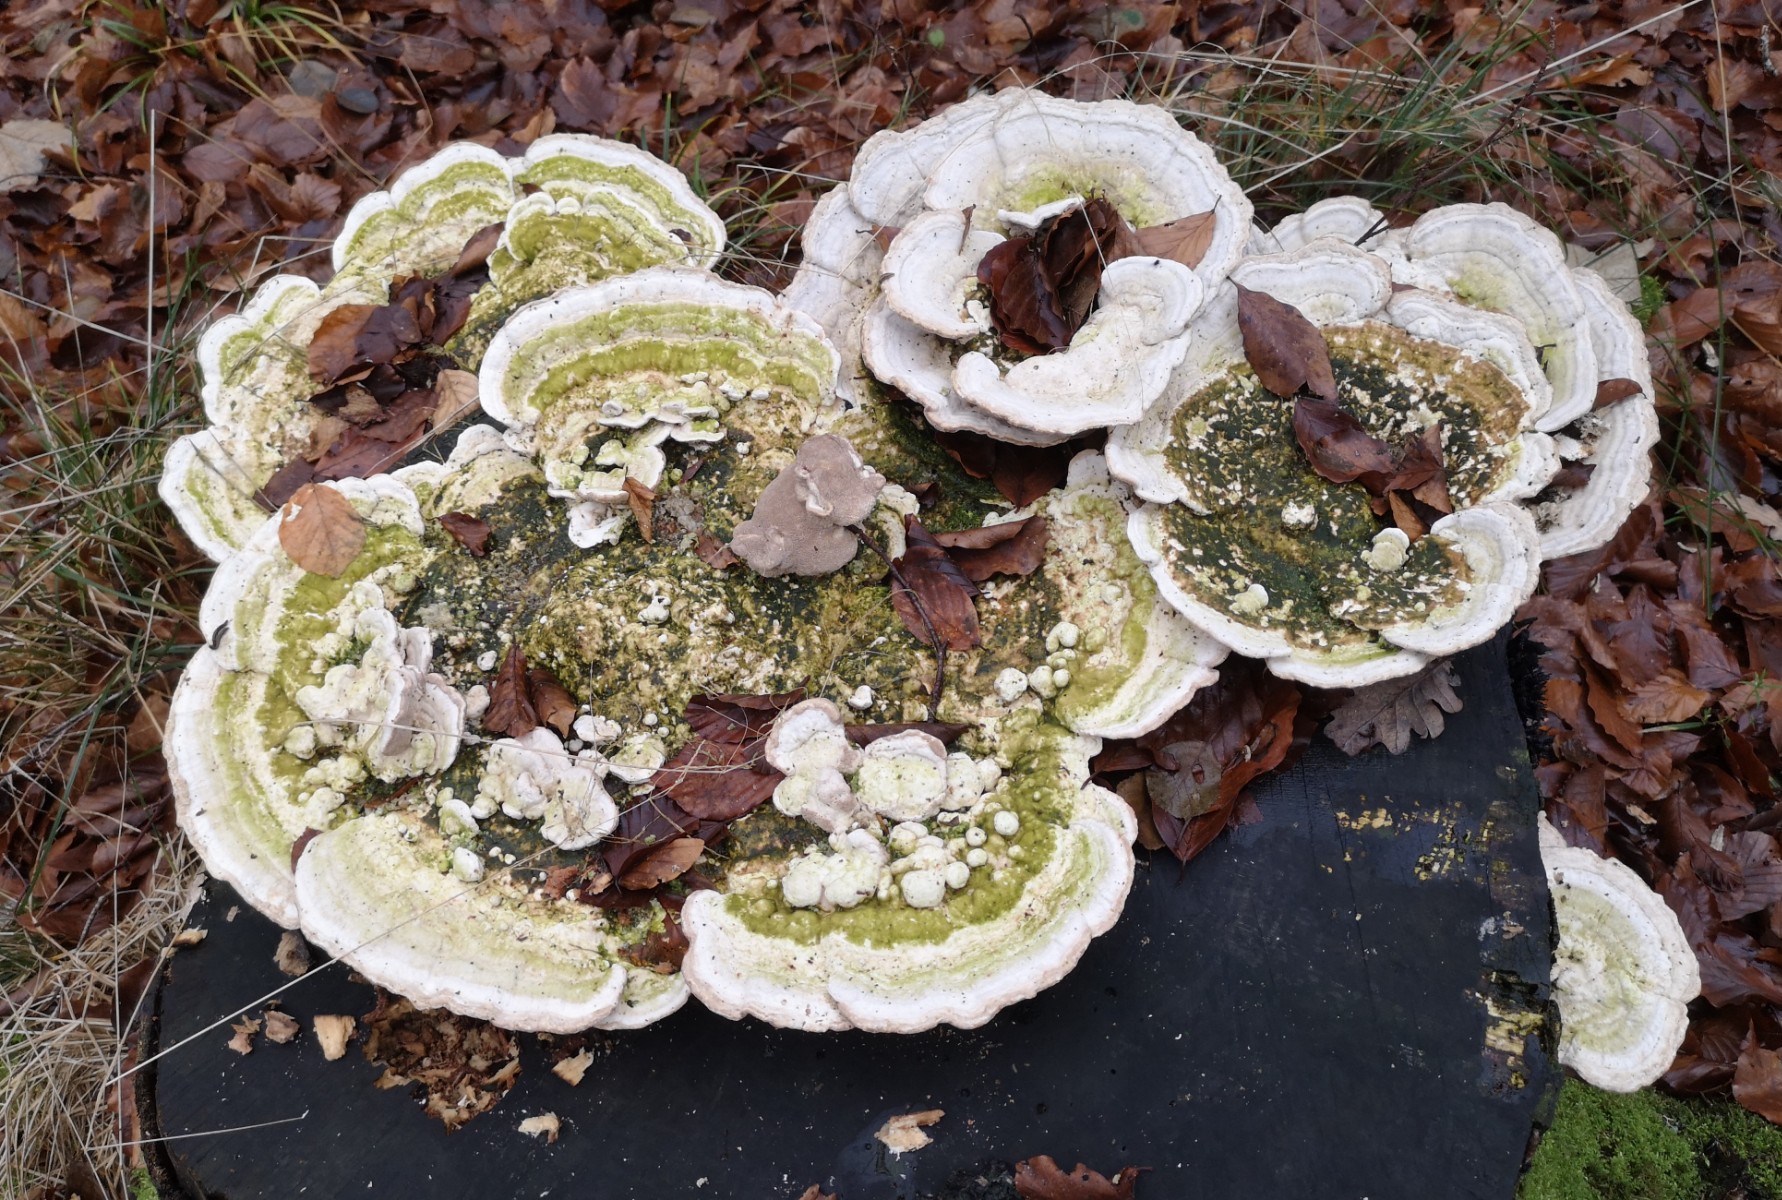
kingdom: Fungi
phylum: Basidiomycota
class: Agaricomycetes
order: Polyporales
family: Polyporaceae
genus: Trametes
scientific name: Trametes gibbosa
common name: puklet læderporesvamp
